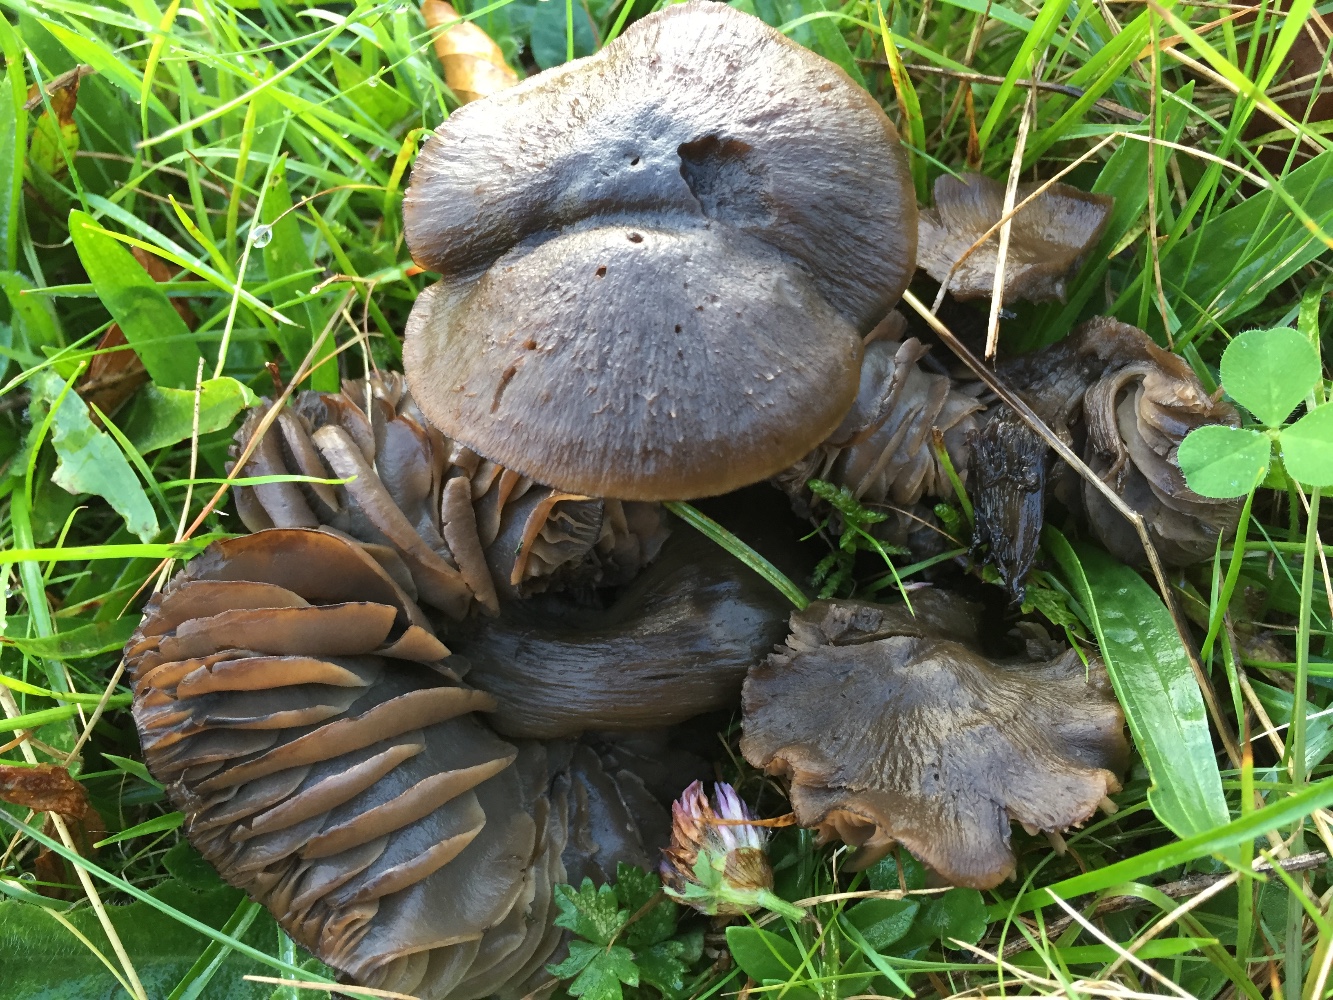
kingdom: Fungi
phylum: Basidiomycota
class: Agaricomycetes
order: Agaricales
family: Hygrophoraceae
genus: Neohygrocybe
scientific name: Neohygrocybe ovina
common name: rødmende vokshat
